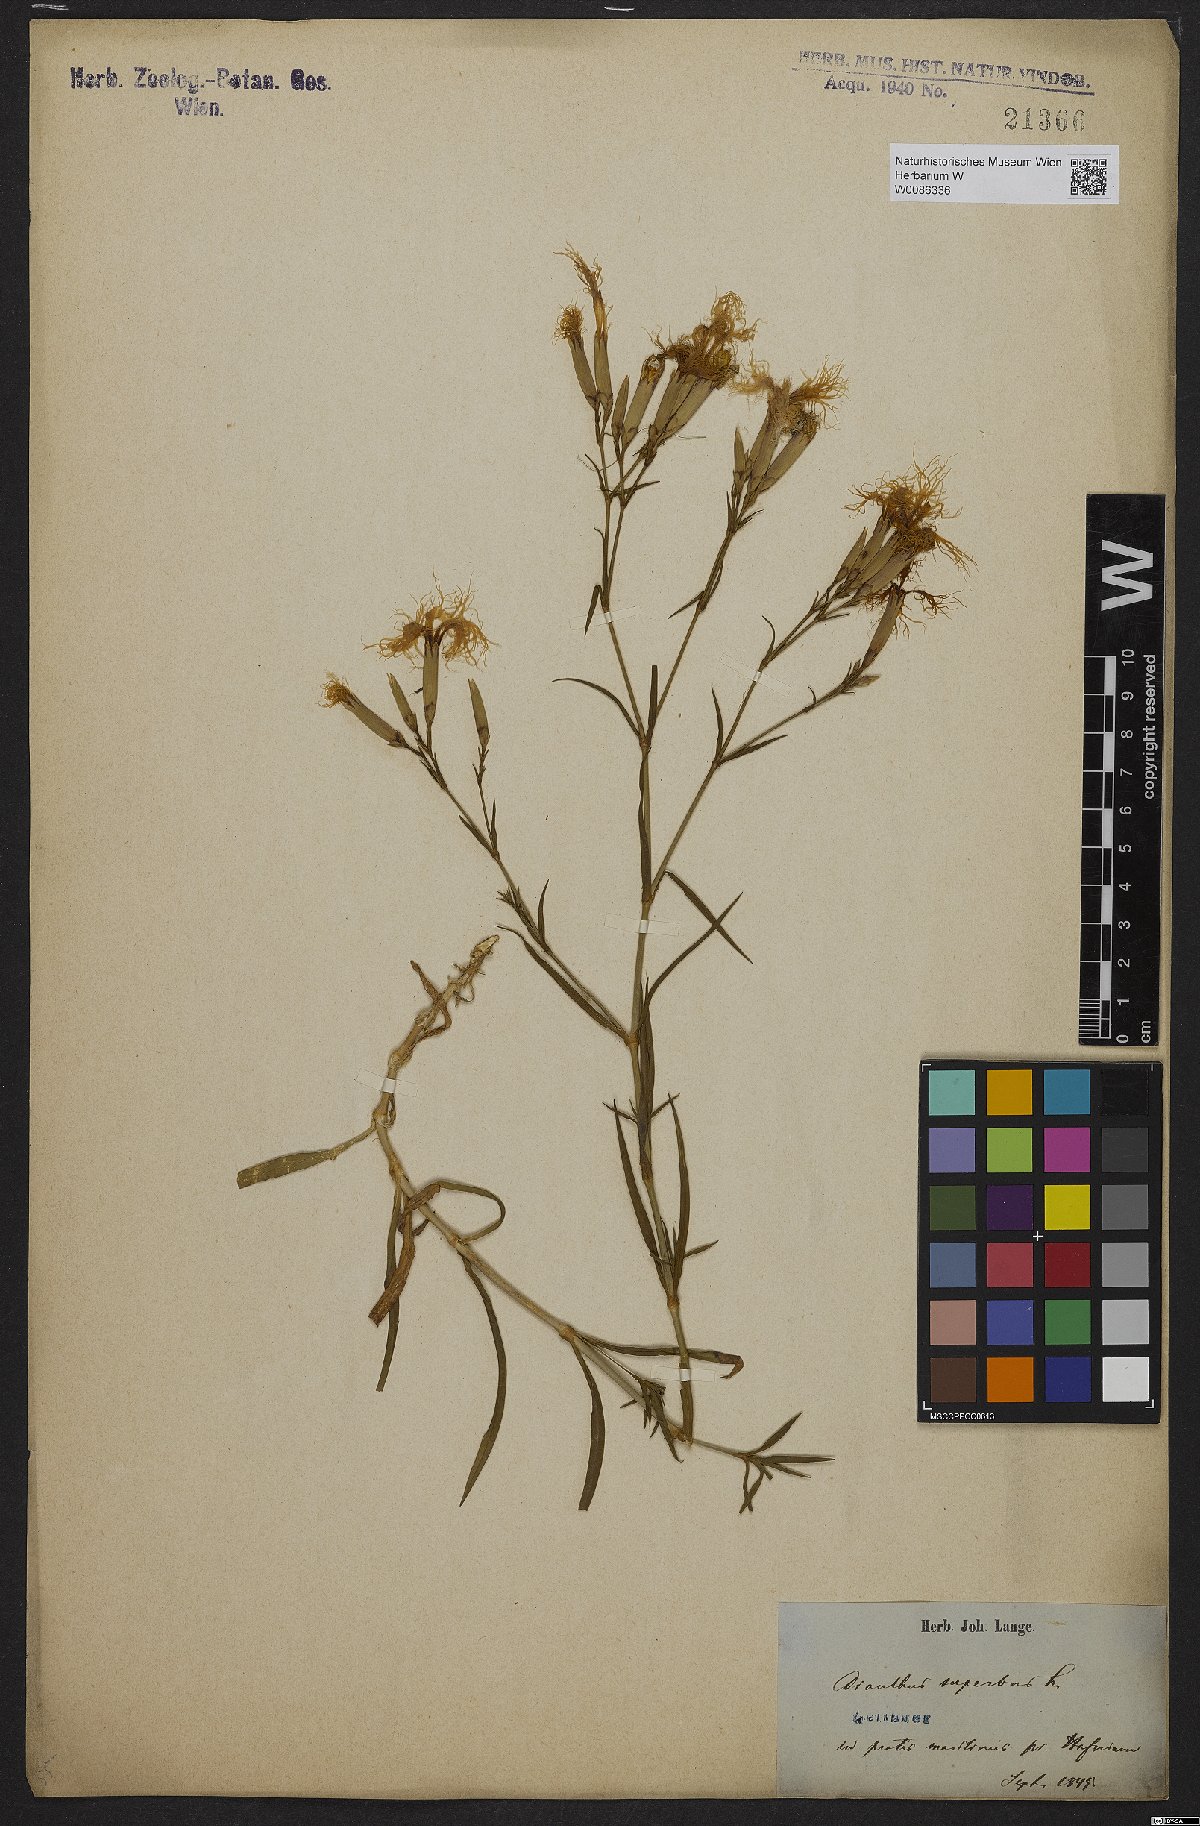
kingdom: Plantae
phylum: Tracheophyta
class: Magnoliopsida
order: Caryophyllales
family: Caryophyllaceae
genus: Dianthus
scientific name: Dianthus superbus
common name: Fringed pink
